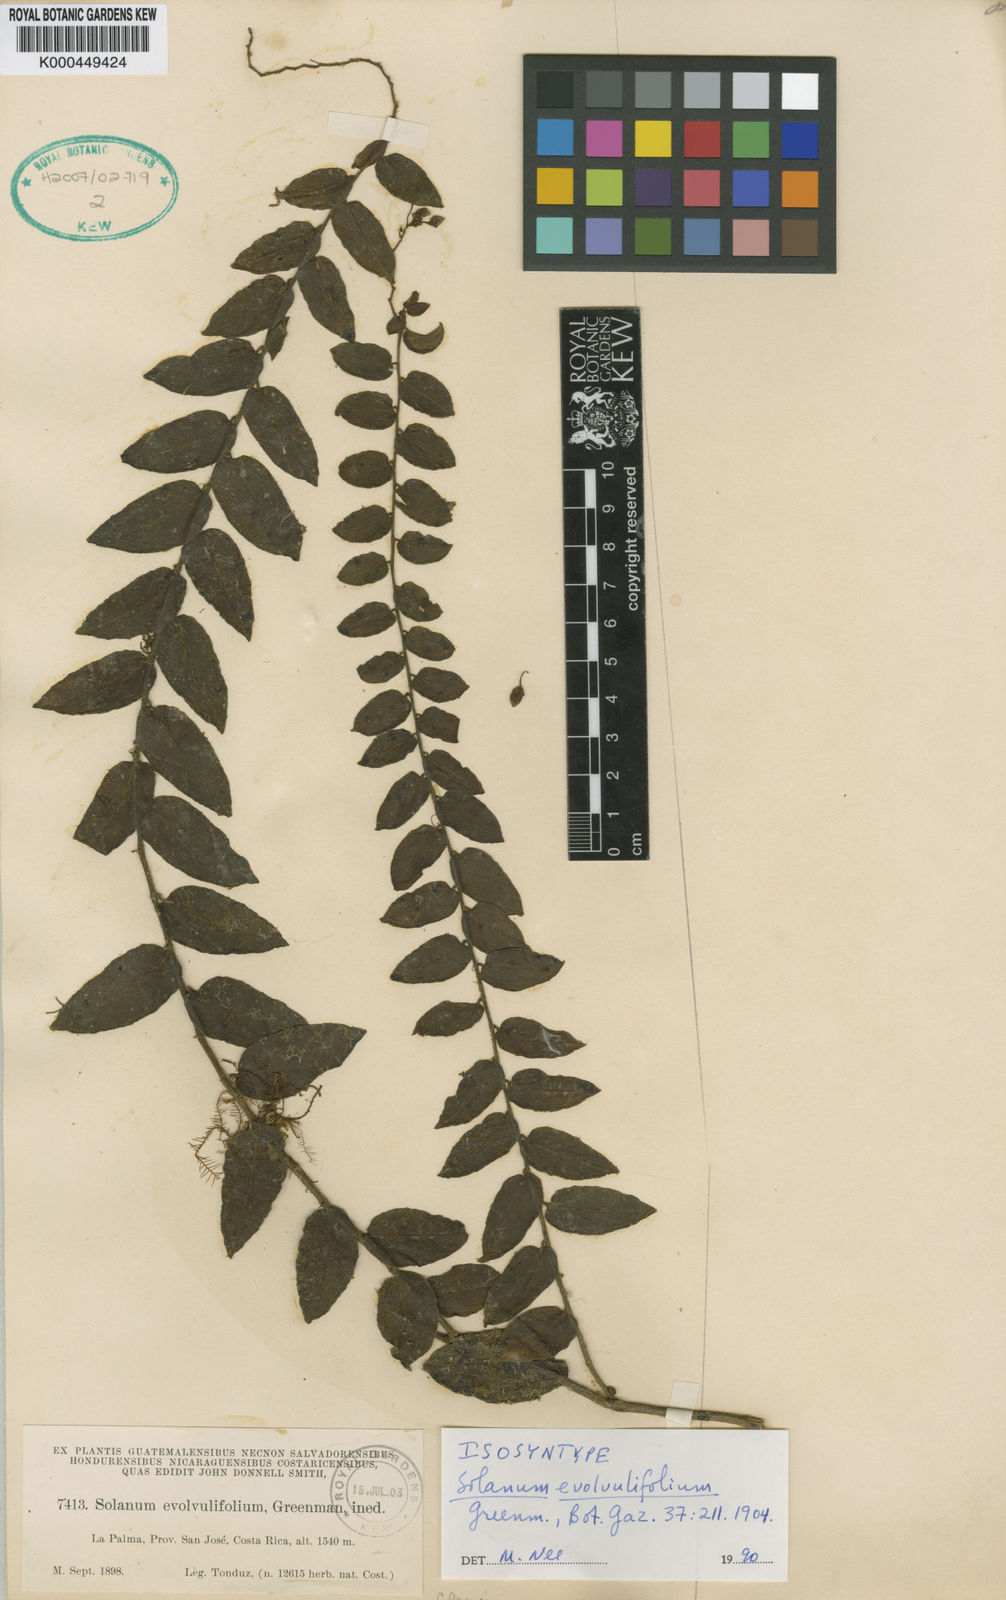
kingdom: Plantae
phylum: Tracheophyta
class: Magnoliopsida
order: Solanales
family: Solanaceae
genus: Solanum
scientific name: Solanum evolvulifolium
